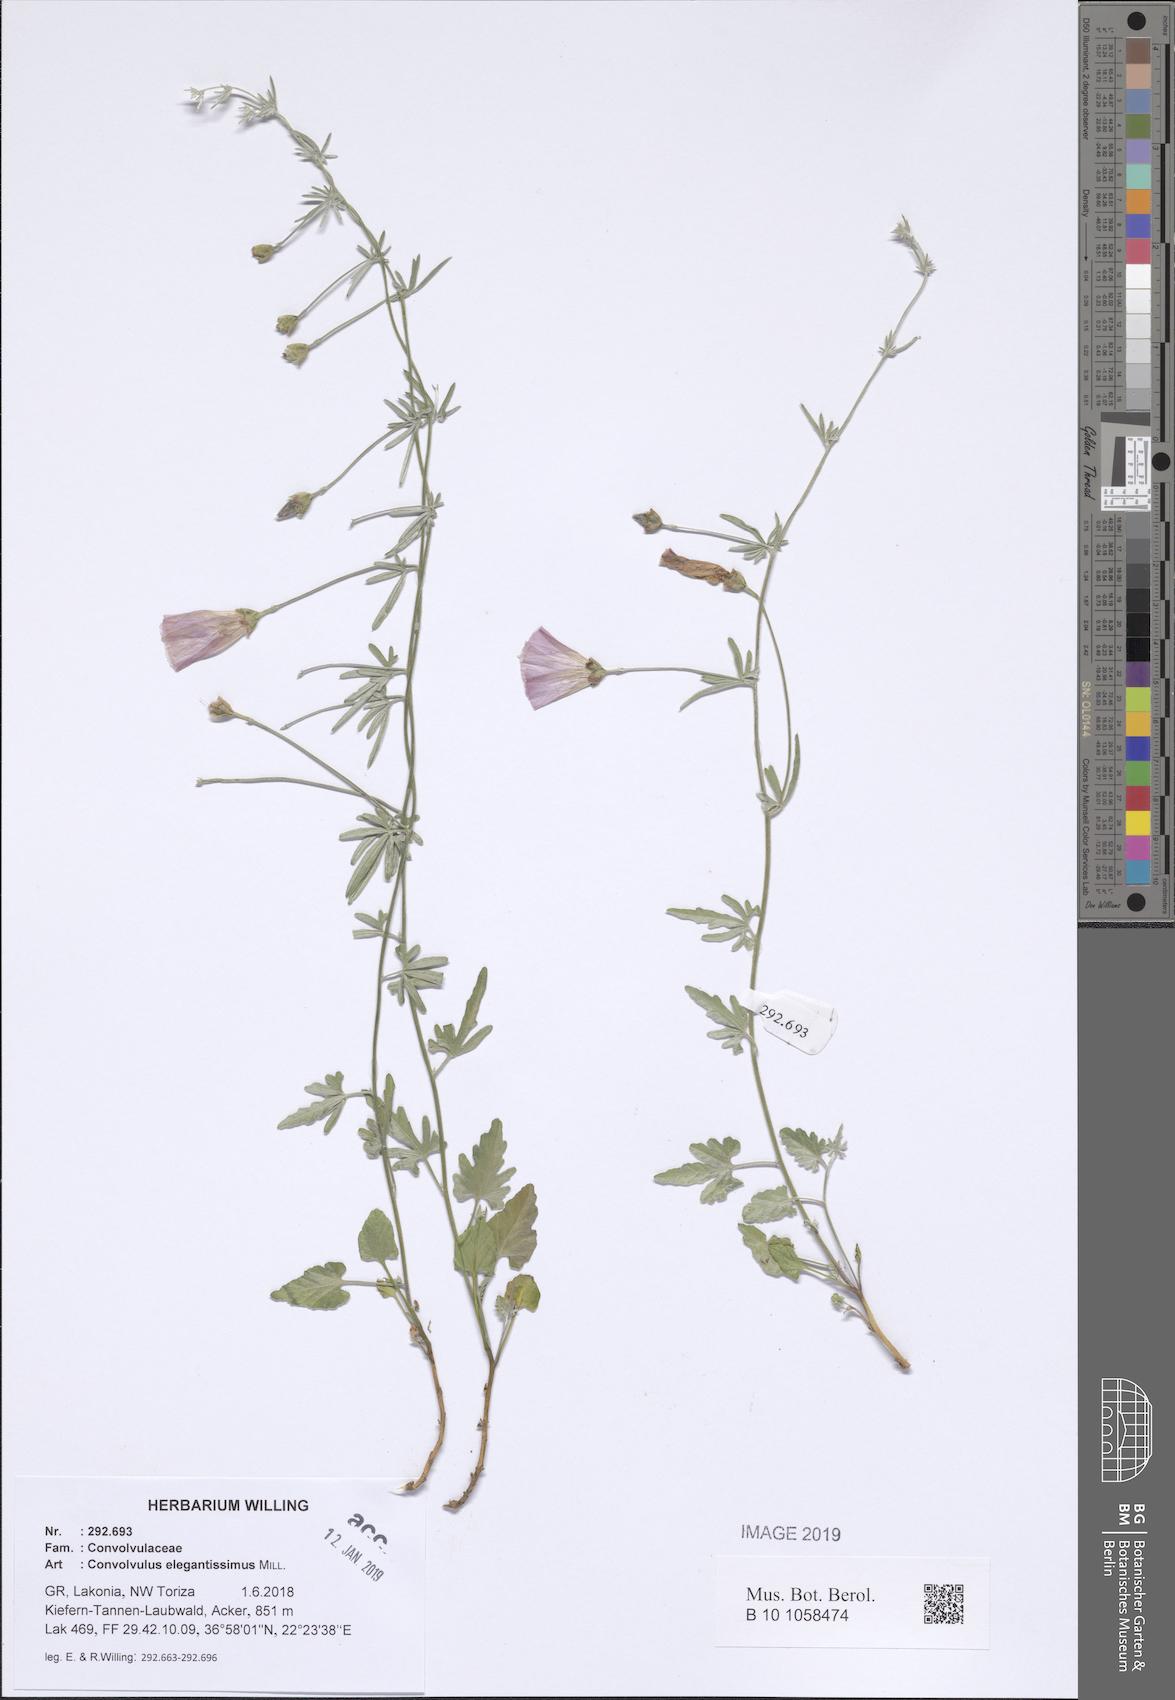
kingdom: Plantae
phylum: Tracheophyta
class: Magnoliopsida
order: Solanales
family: Convolvulaceae
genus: Convolvulus
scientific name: Convolvulus elegantissimus
